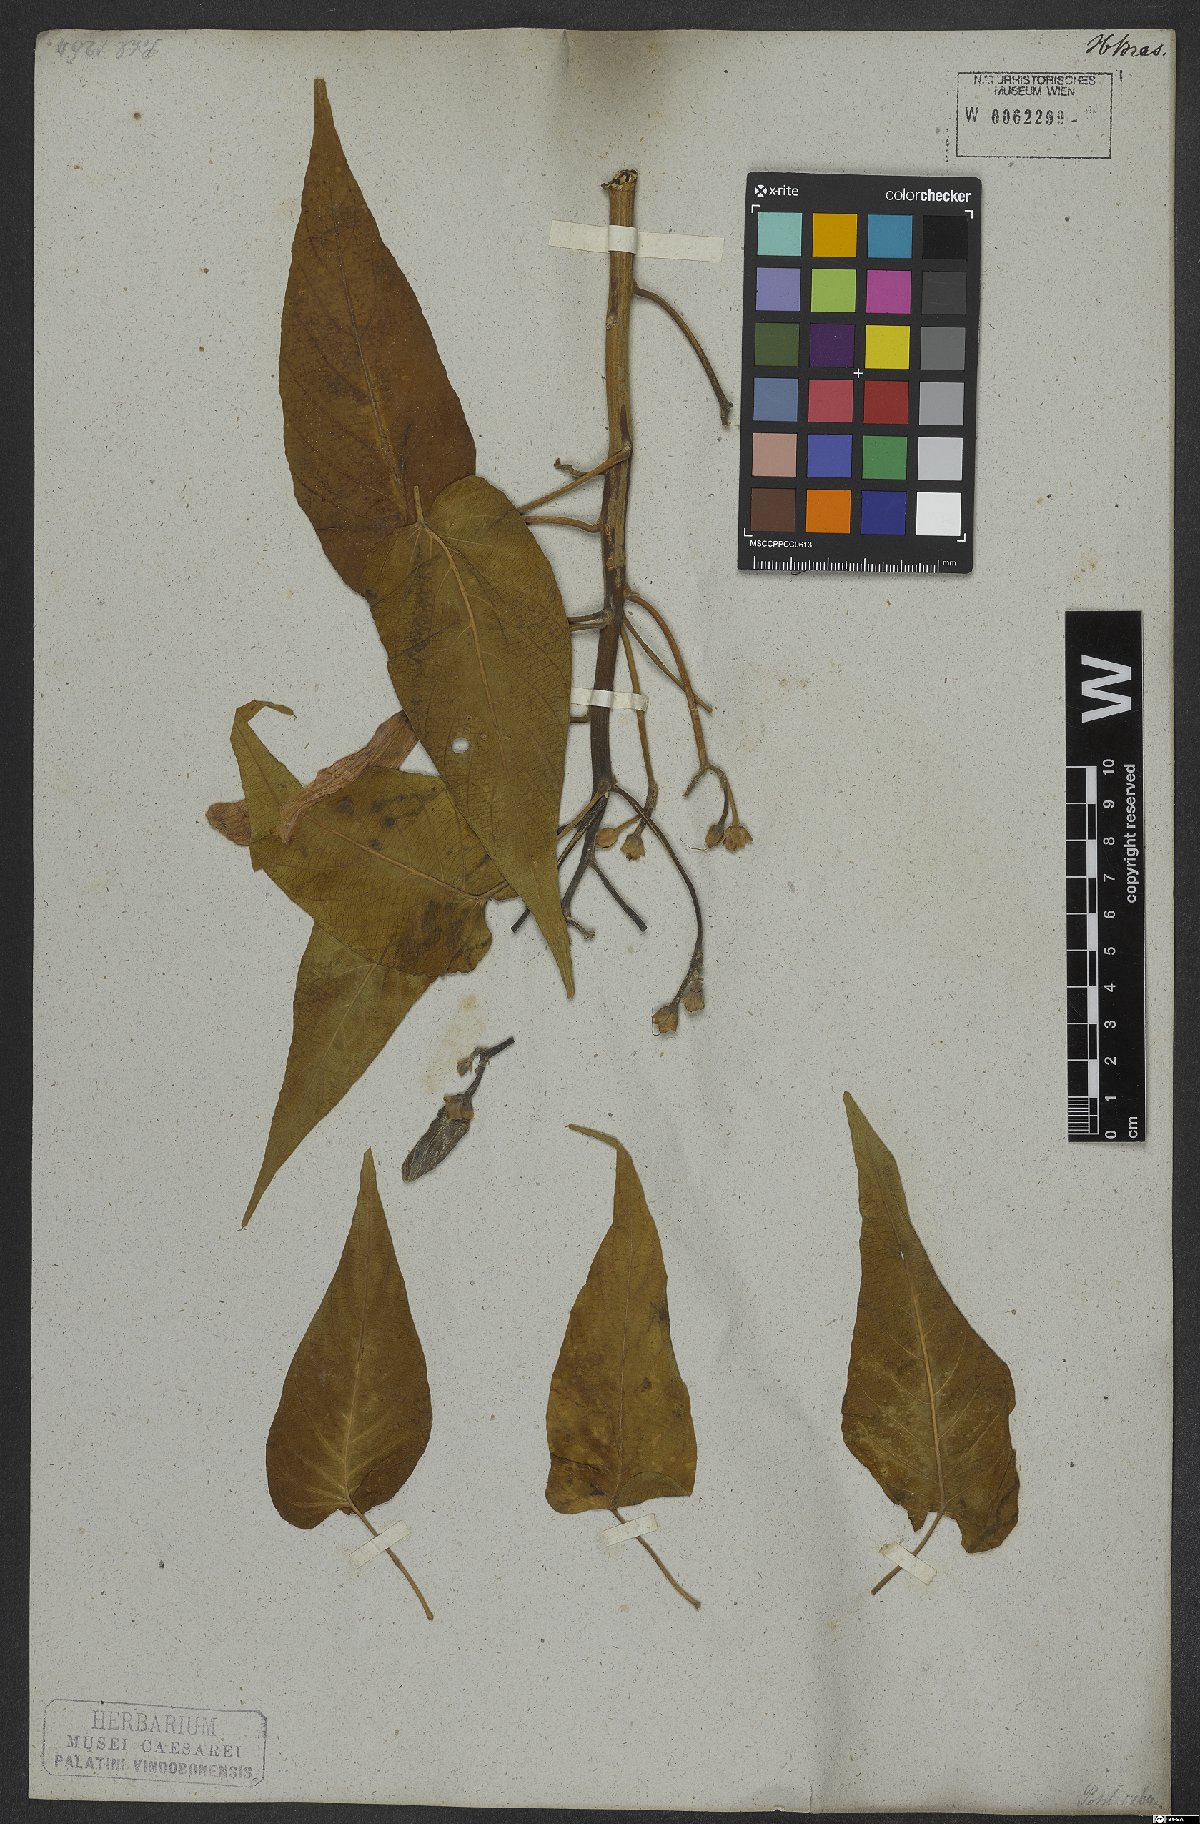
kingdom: Plantae
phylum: Tracheophyta
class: Magnoliopsida
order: Solanales
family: Convolvulaceae
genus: Ipomoea
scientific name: Ipomoea carnea
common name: Morning-glory
